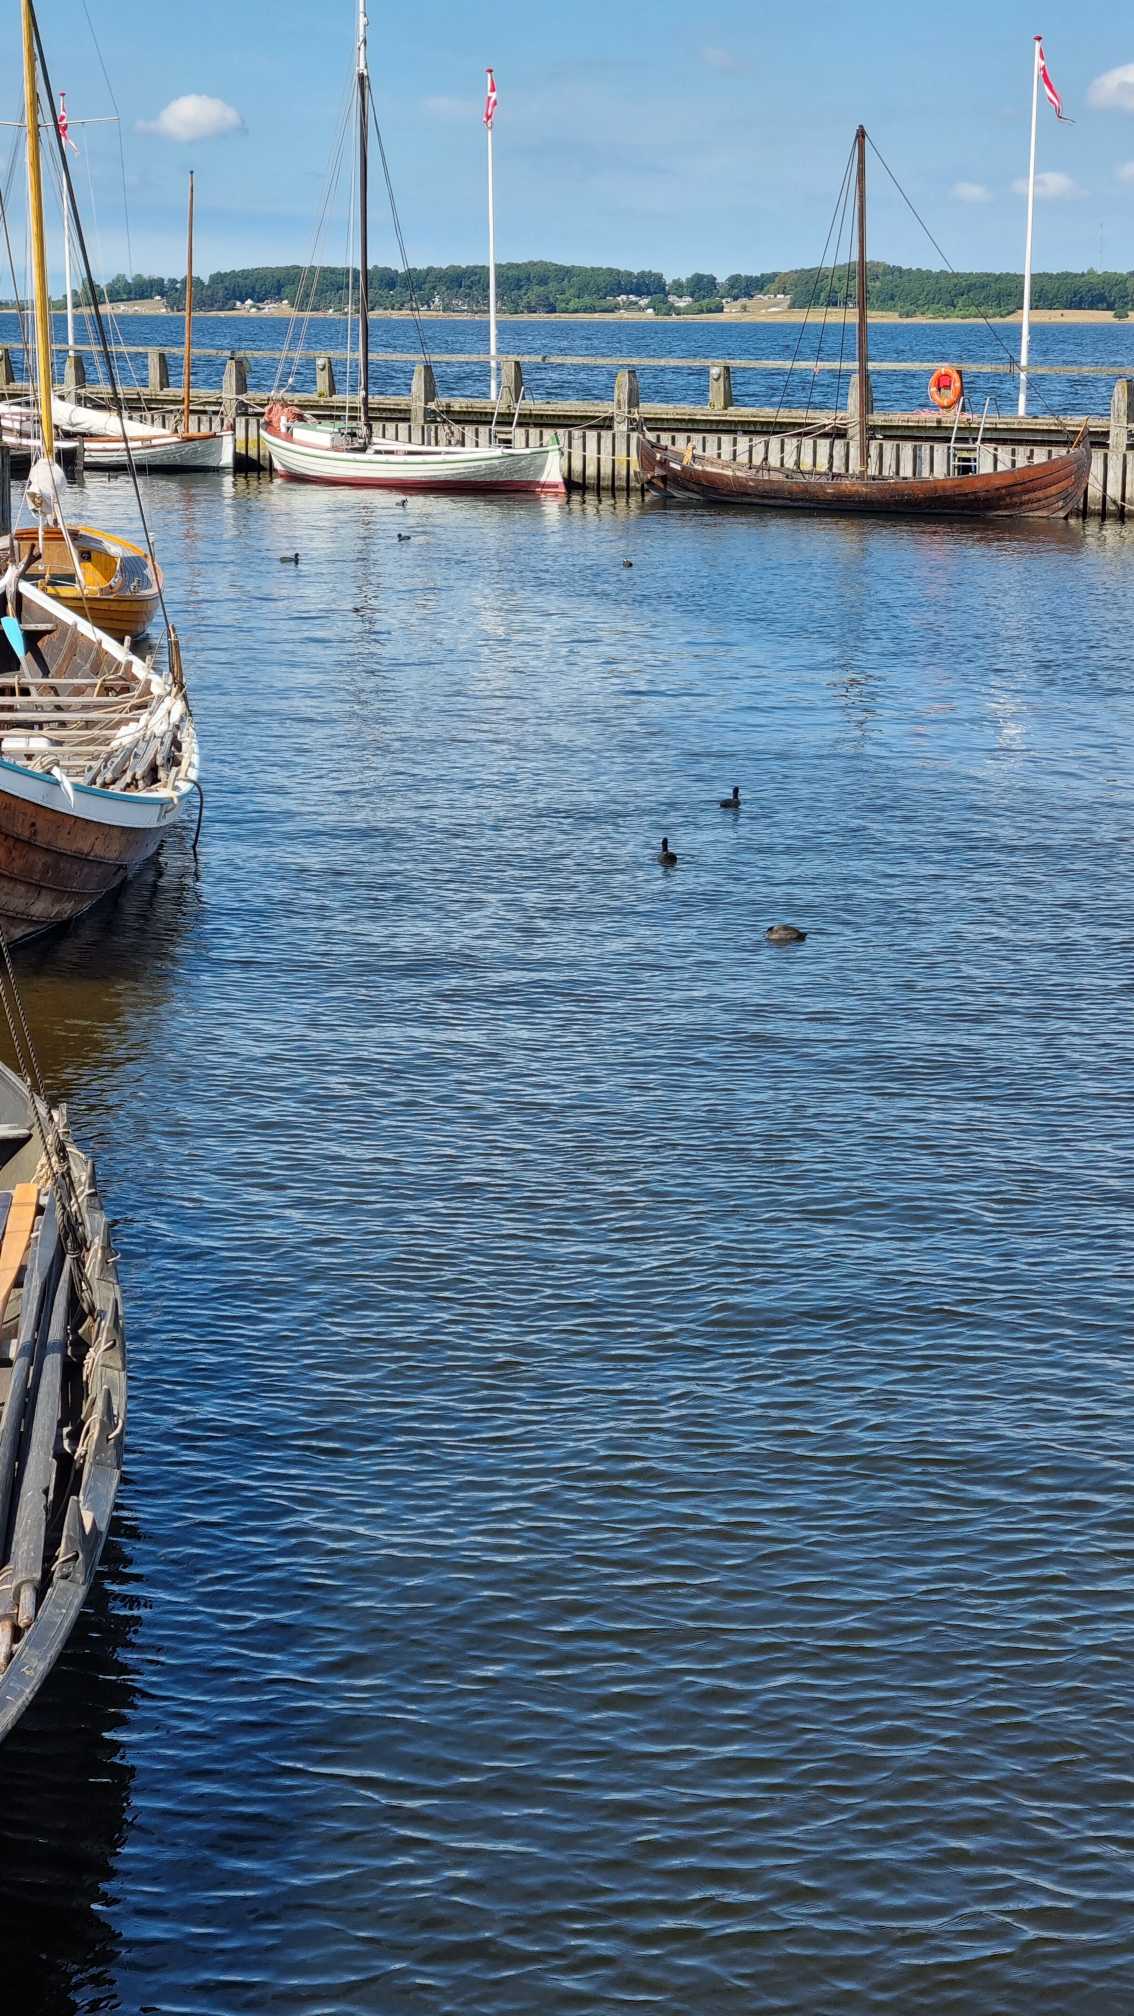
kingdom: Animalia
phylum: Chordata
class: Aves
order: Gruiformes
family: Rallidae
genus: Fulica
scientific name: Fulica atra
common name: Blishøne
